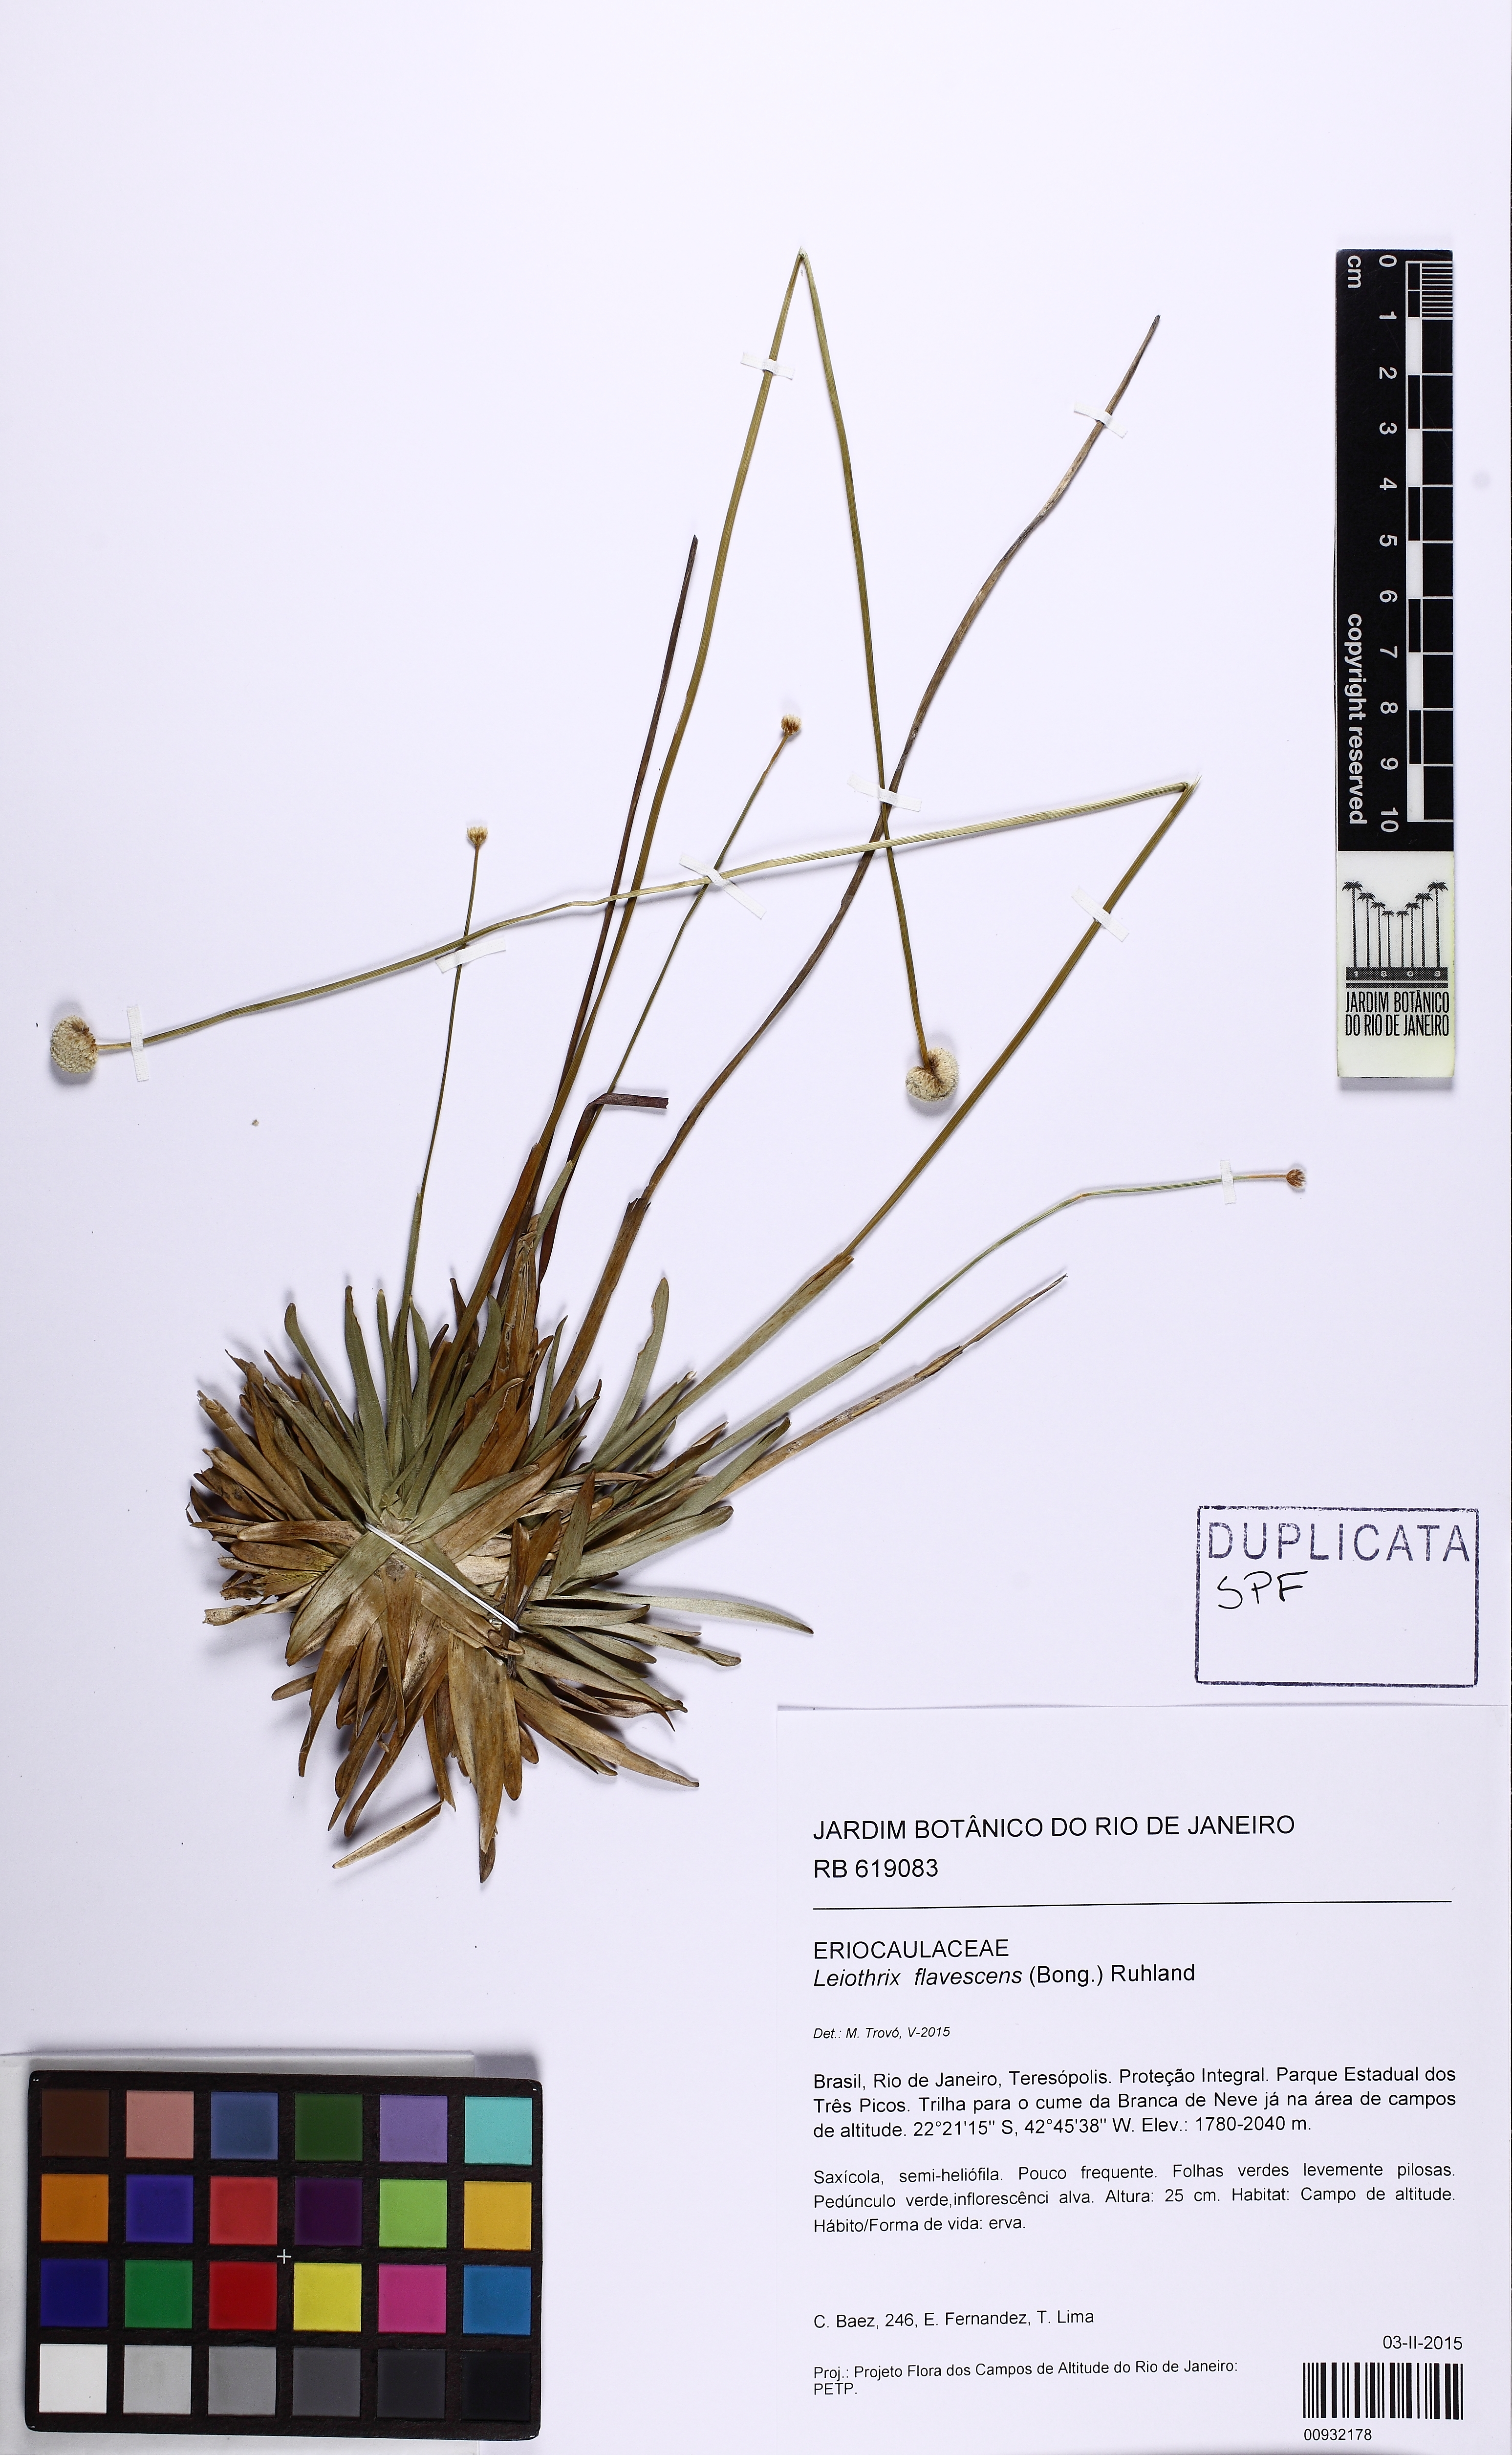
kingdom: Plantae
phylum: Tracheophyta
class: Liliopsida
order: Poales
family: Eriocaulaceae
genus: Leiothrix
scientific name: Leiothrix flavescens
